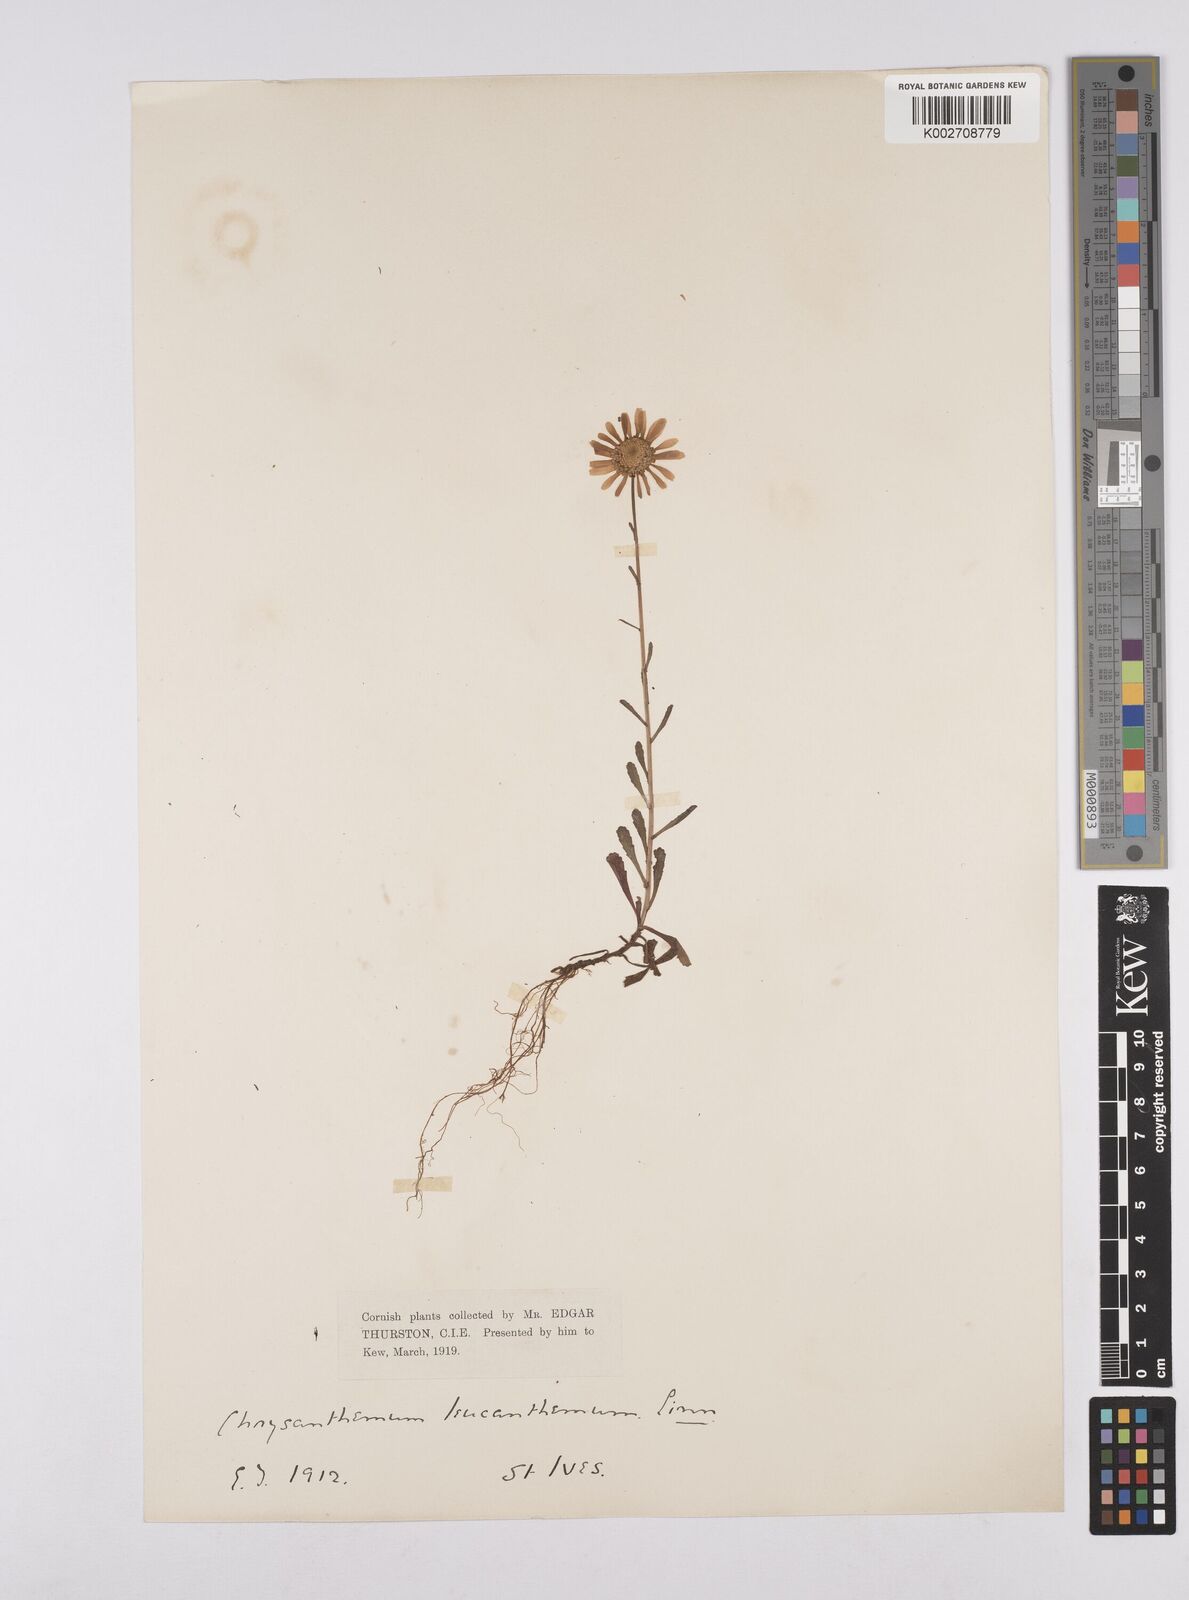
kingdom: Plantae
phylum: Tracheophyta
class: Magnoliopsida
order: Asterales
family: Asteraceae
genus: Leucanthemum
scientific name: Leucanthemum vulgare
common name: Oxeye daisy
